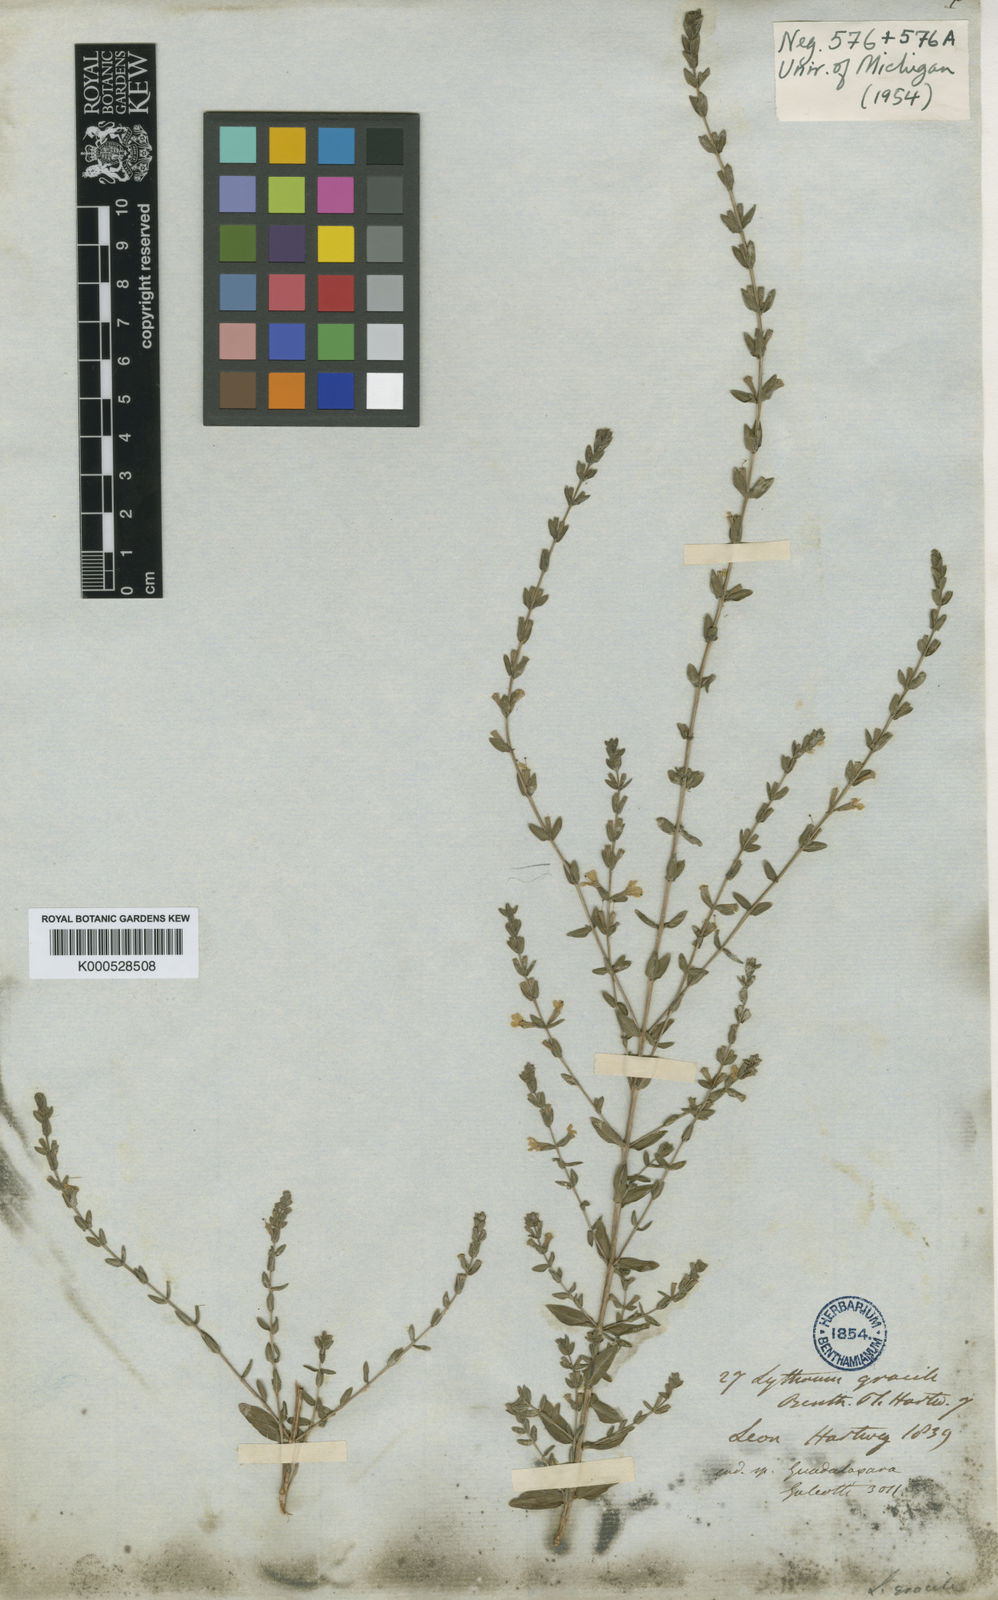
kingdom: Plantae
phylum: Tracheophyta
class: Magnoliopsida
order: Myrtales
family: Lythraceae
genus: Lythrum
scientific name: Lythrum gracile
